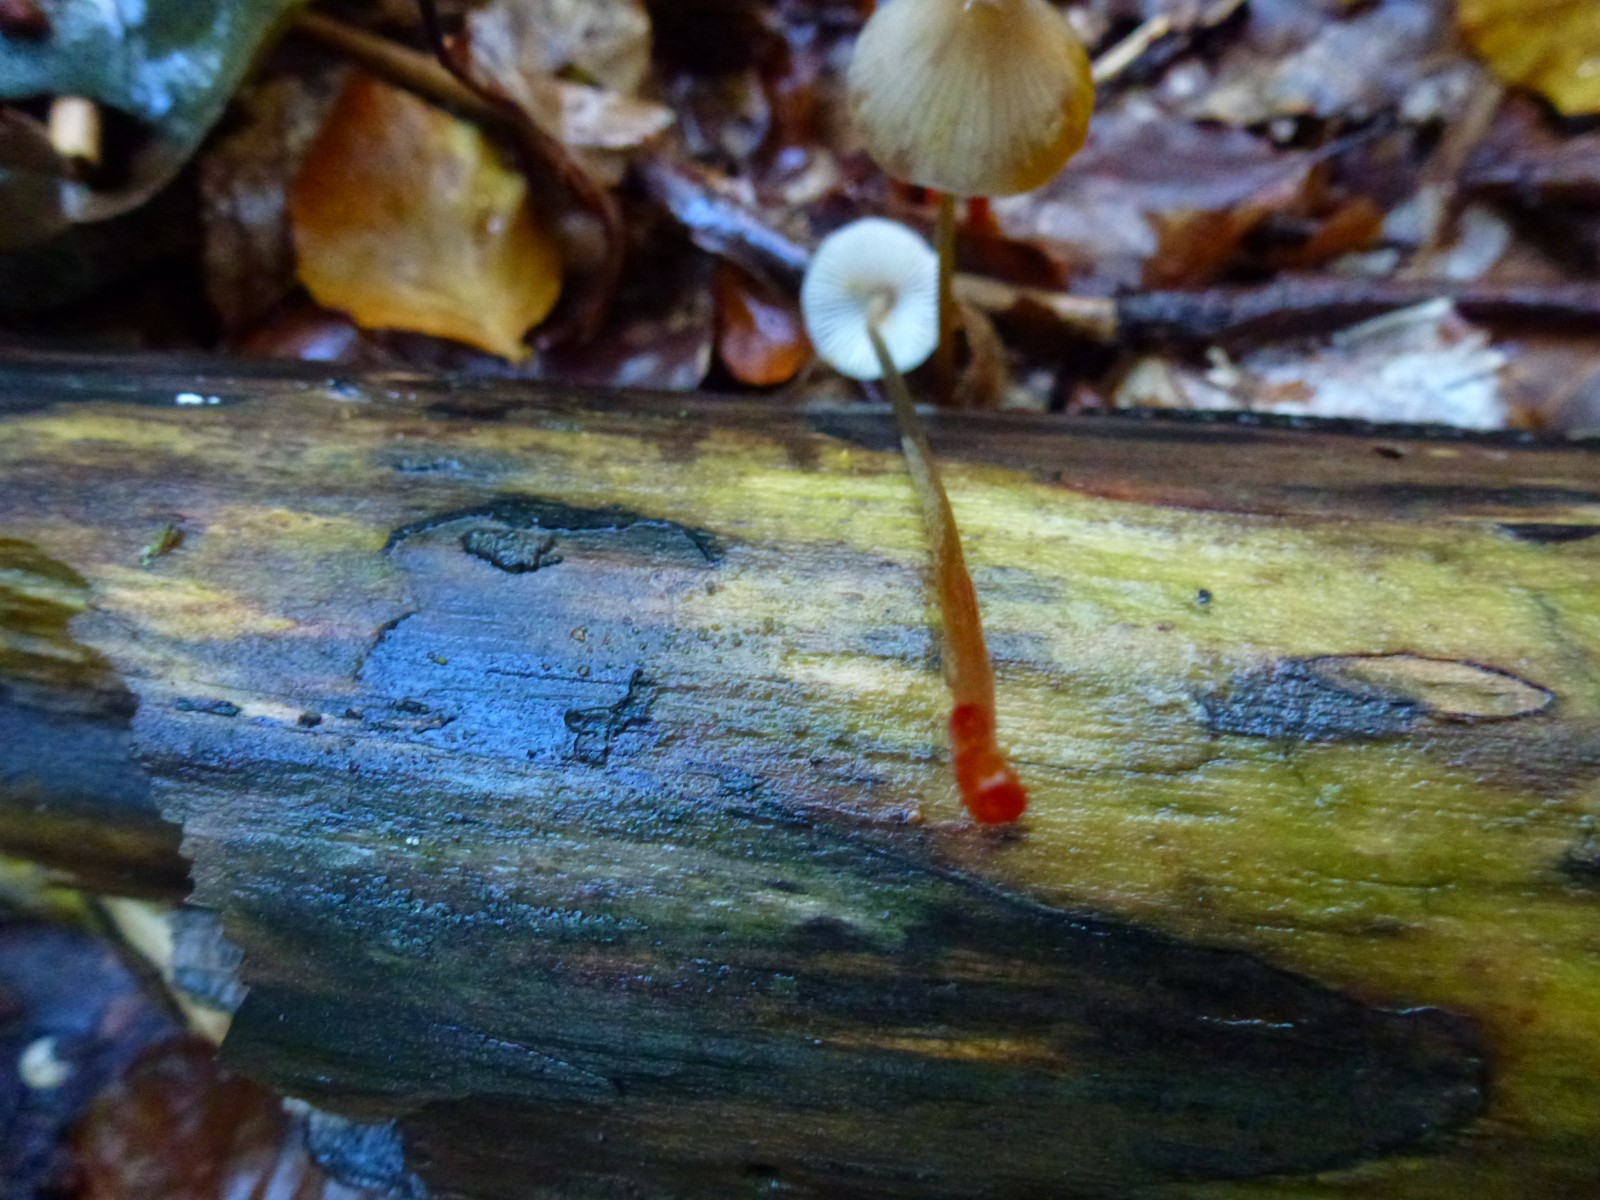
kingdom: Fungi
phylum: Basidiomycota
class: Agaricomycetes
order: Agaricales
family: Mycenaceae
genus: Mycena
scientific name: Mycena crocata
